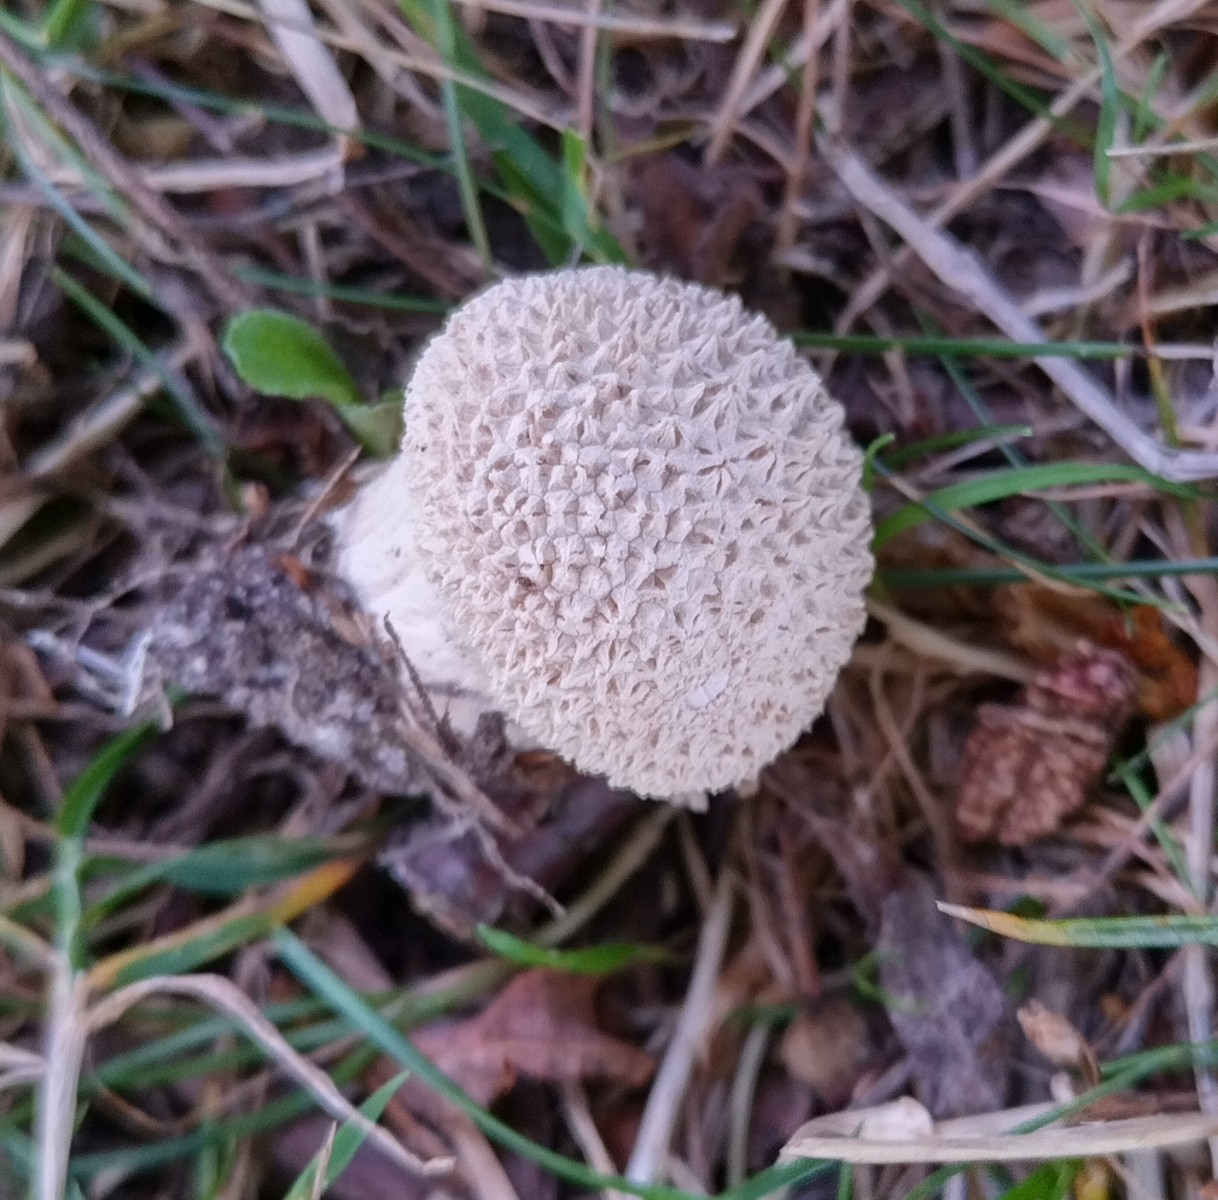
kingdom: Fungi
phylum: Basidiomycota
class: Agaricomycetes
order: Agaricales
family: Lycoperdaceae
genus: Lycoperdon
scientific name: Lycoperdon perlatum
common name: krystal-støvbold
